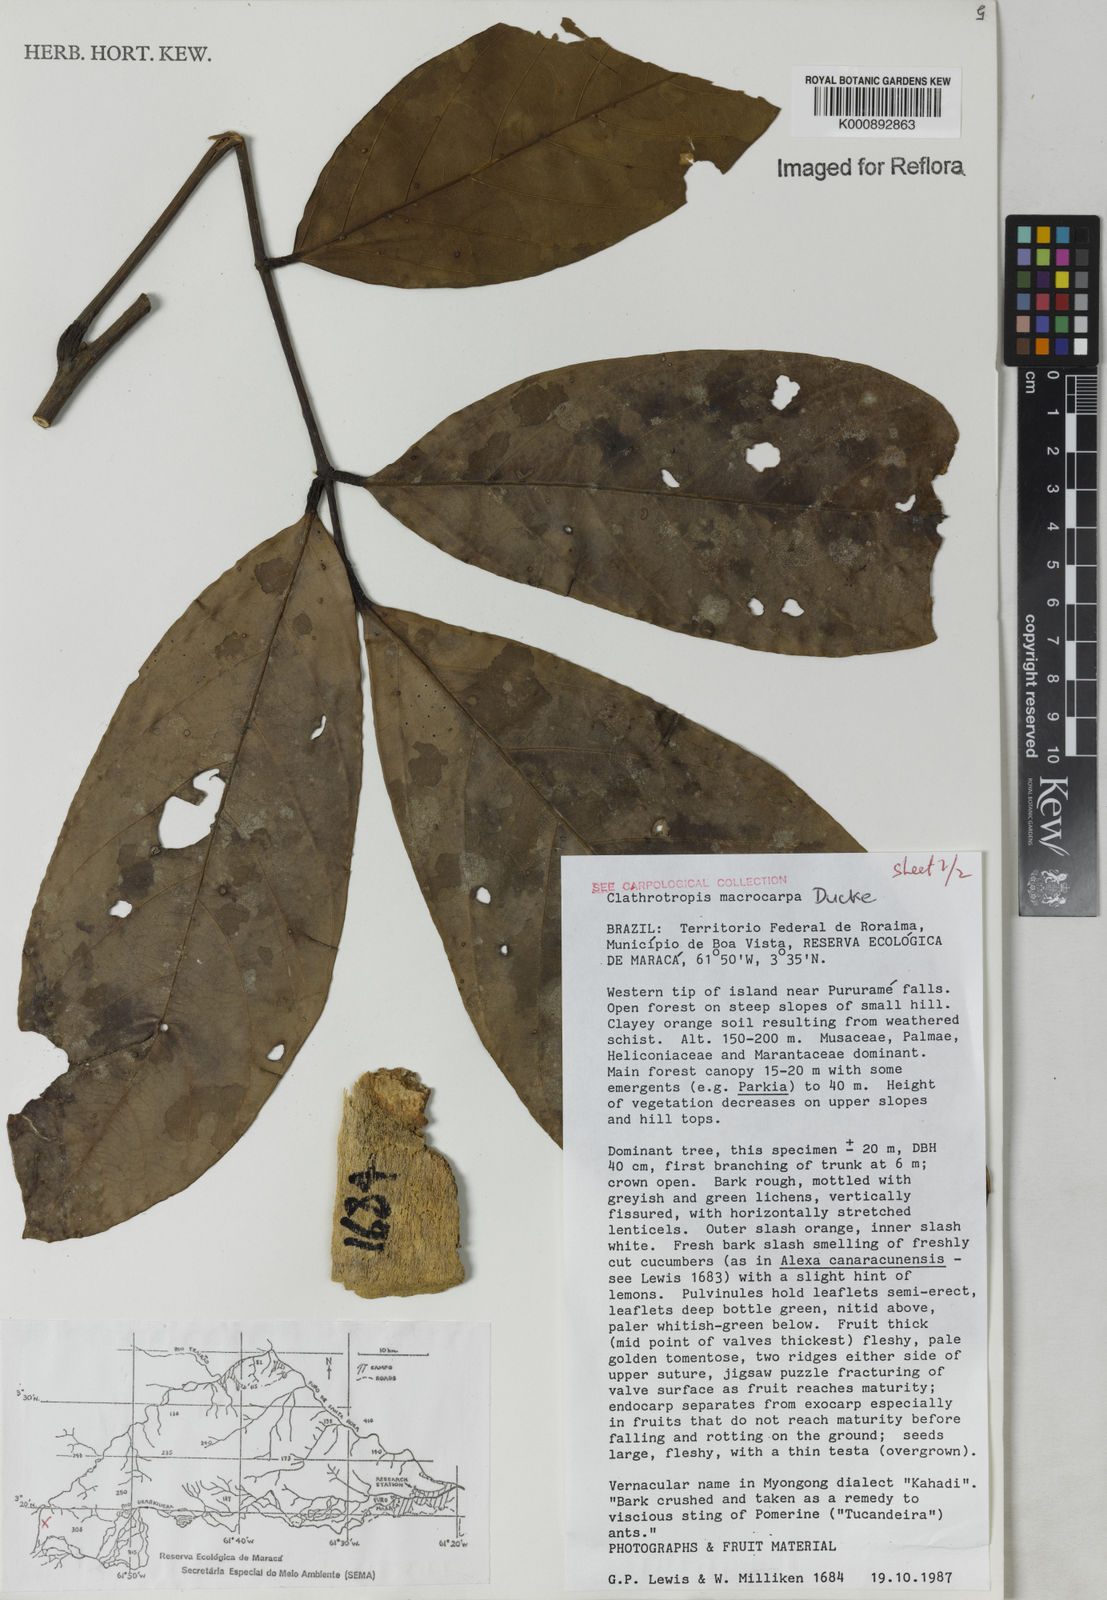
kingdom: Plantae
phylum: Tracheophyta
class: Magnoliopsida
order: Fabales
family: Fabaceae
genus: Clathrotropis
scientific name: Clathrotropis macrocarpa
